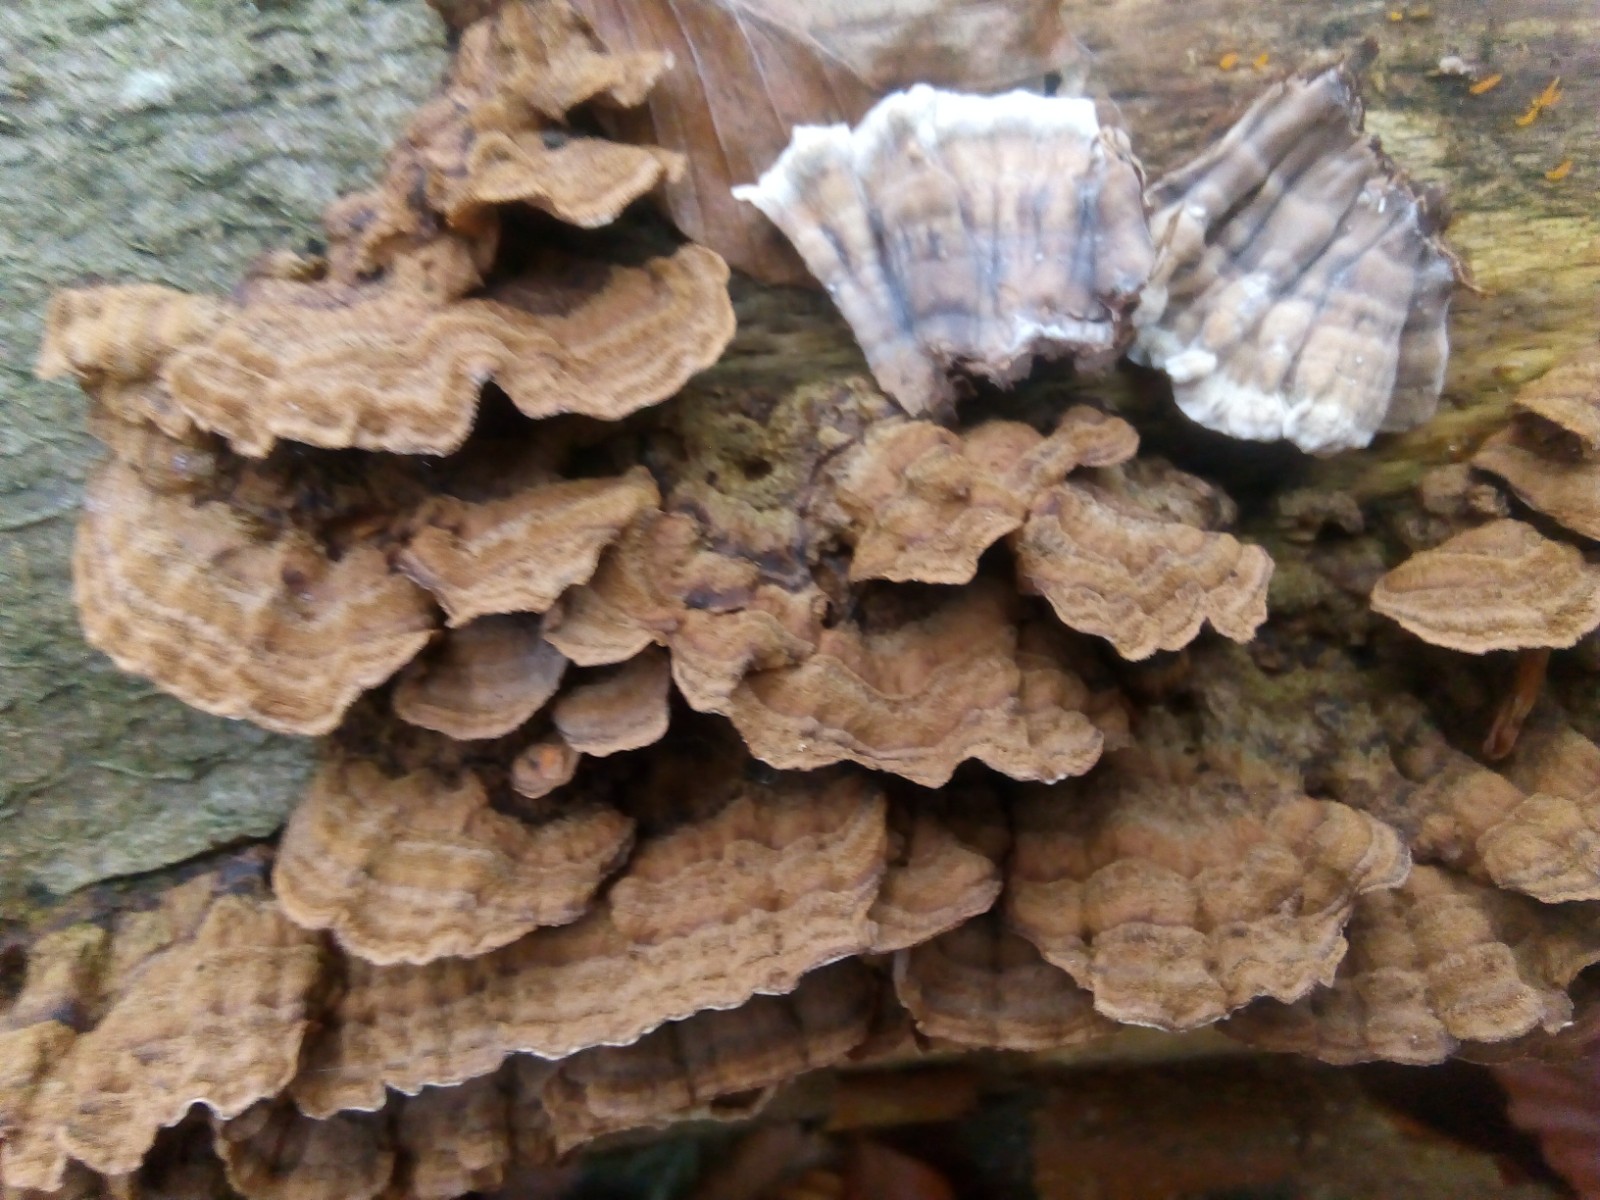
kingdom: Fungi
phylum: Basidiomycota
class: Agaricomycetes
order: Russulales
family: Hericiaceae
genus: Laxitextum
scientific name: Laxitextum bicolor
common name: tvefarvet filtskind
